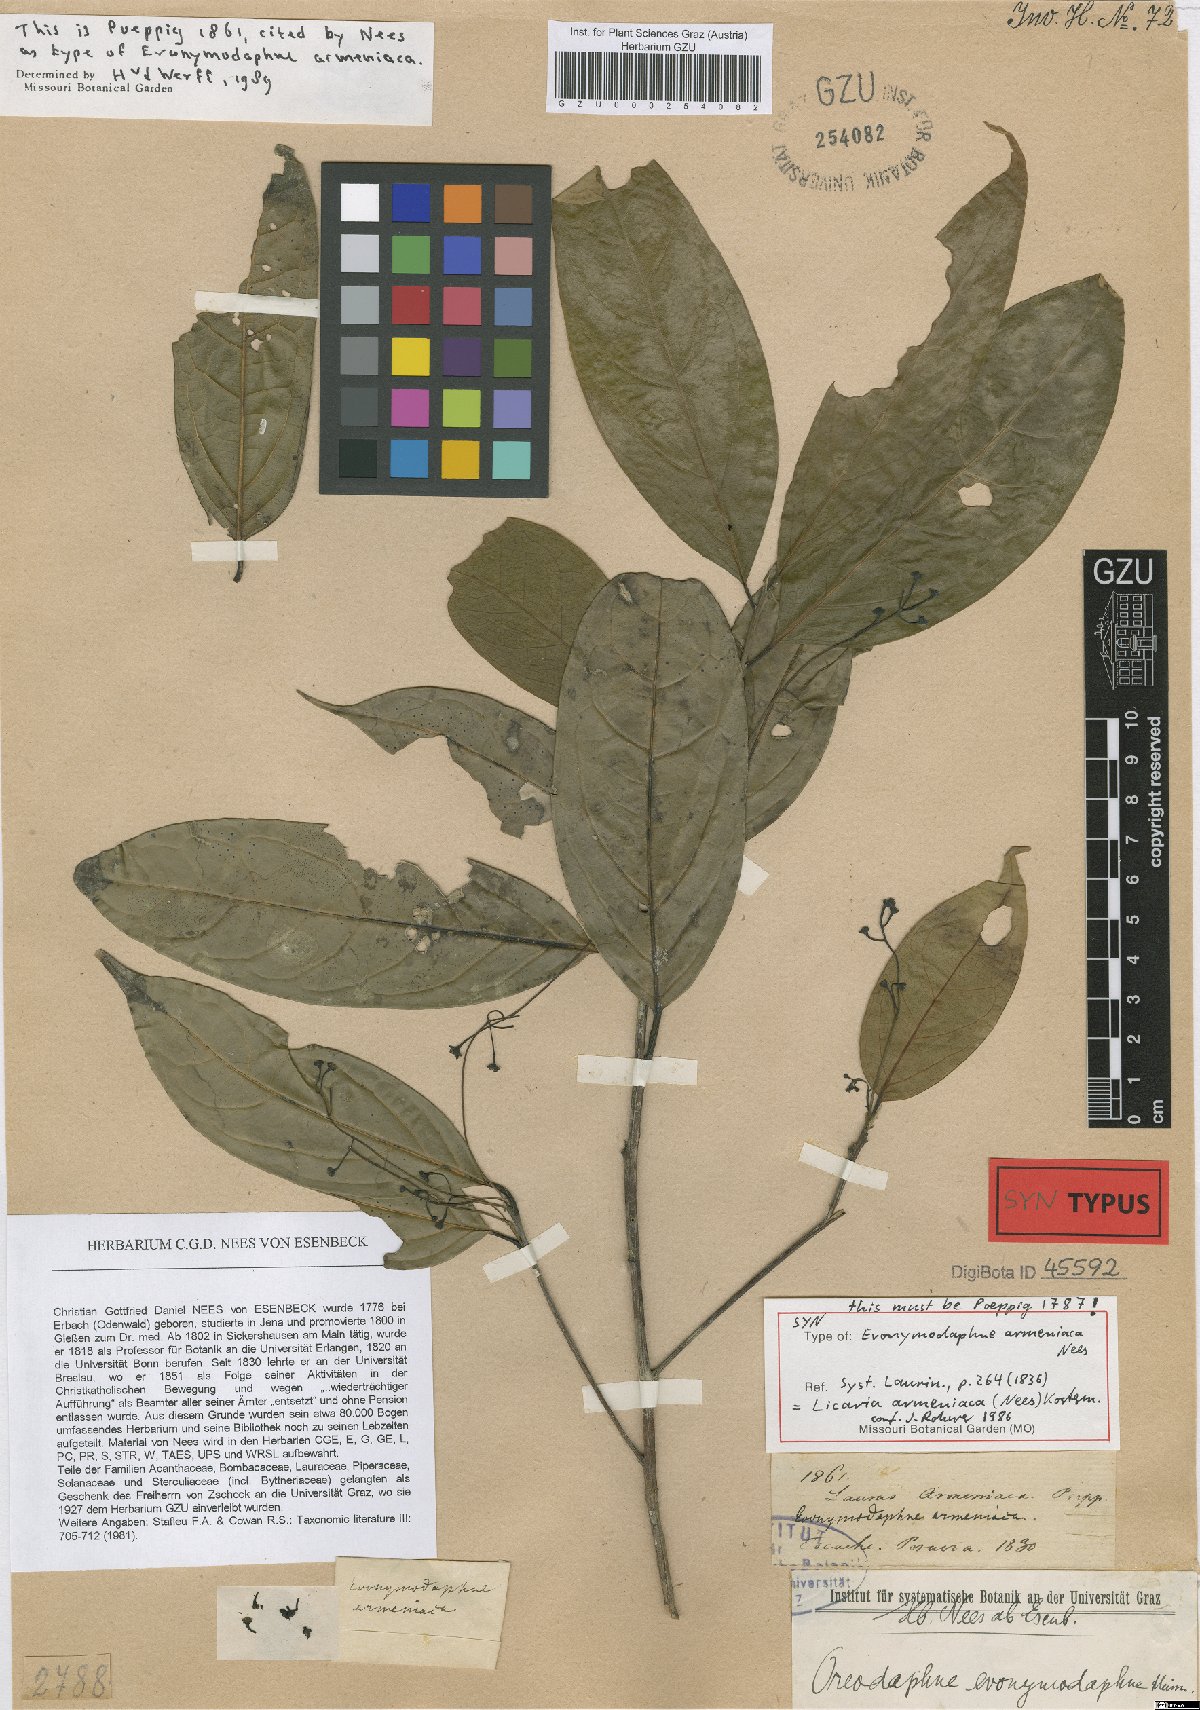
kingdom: Plantae
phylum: Tracheophyta
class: Magnoliopsida
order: Laurales
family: Lauraceae
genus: Licaria
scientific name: Licaria armeniaca
